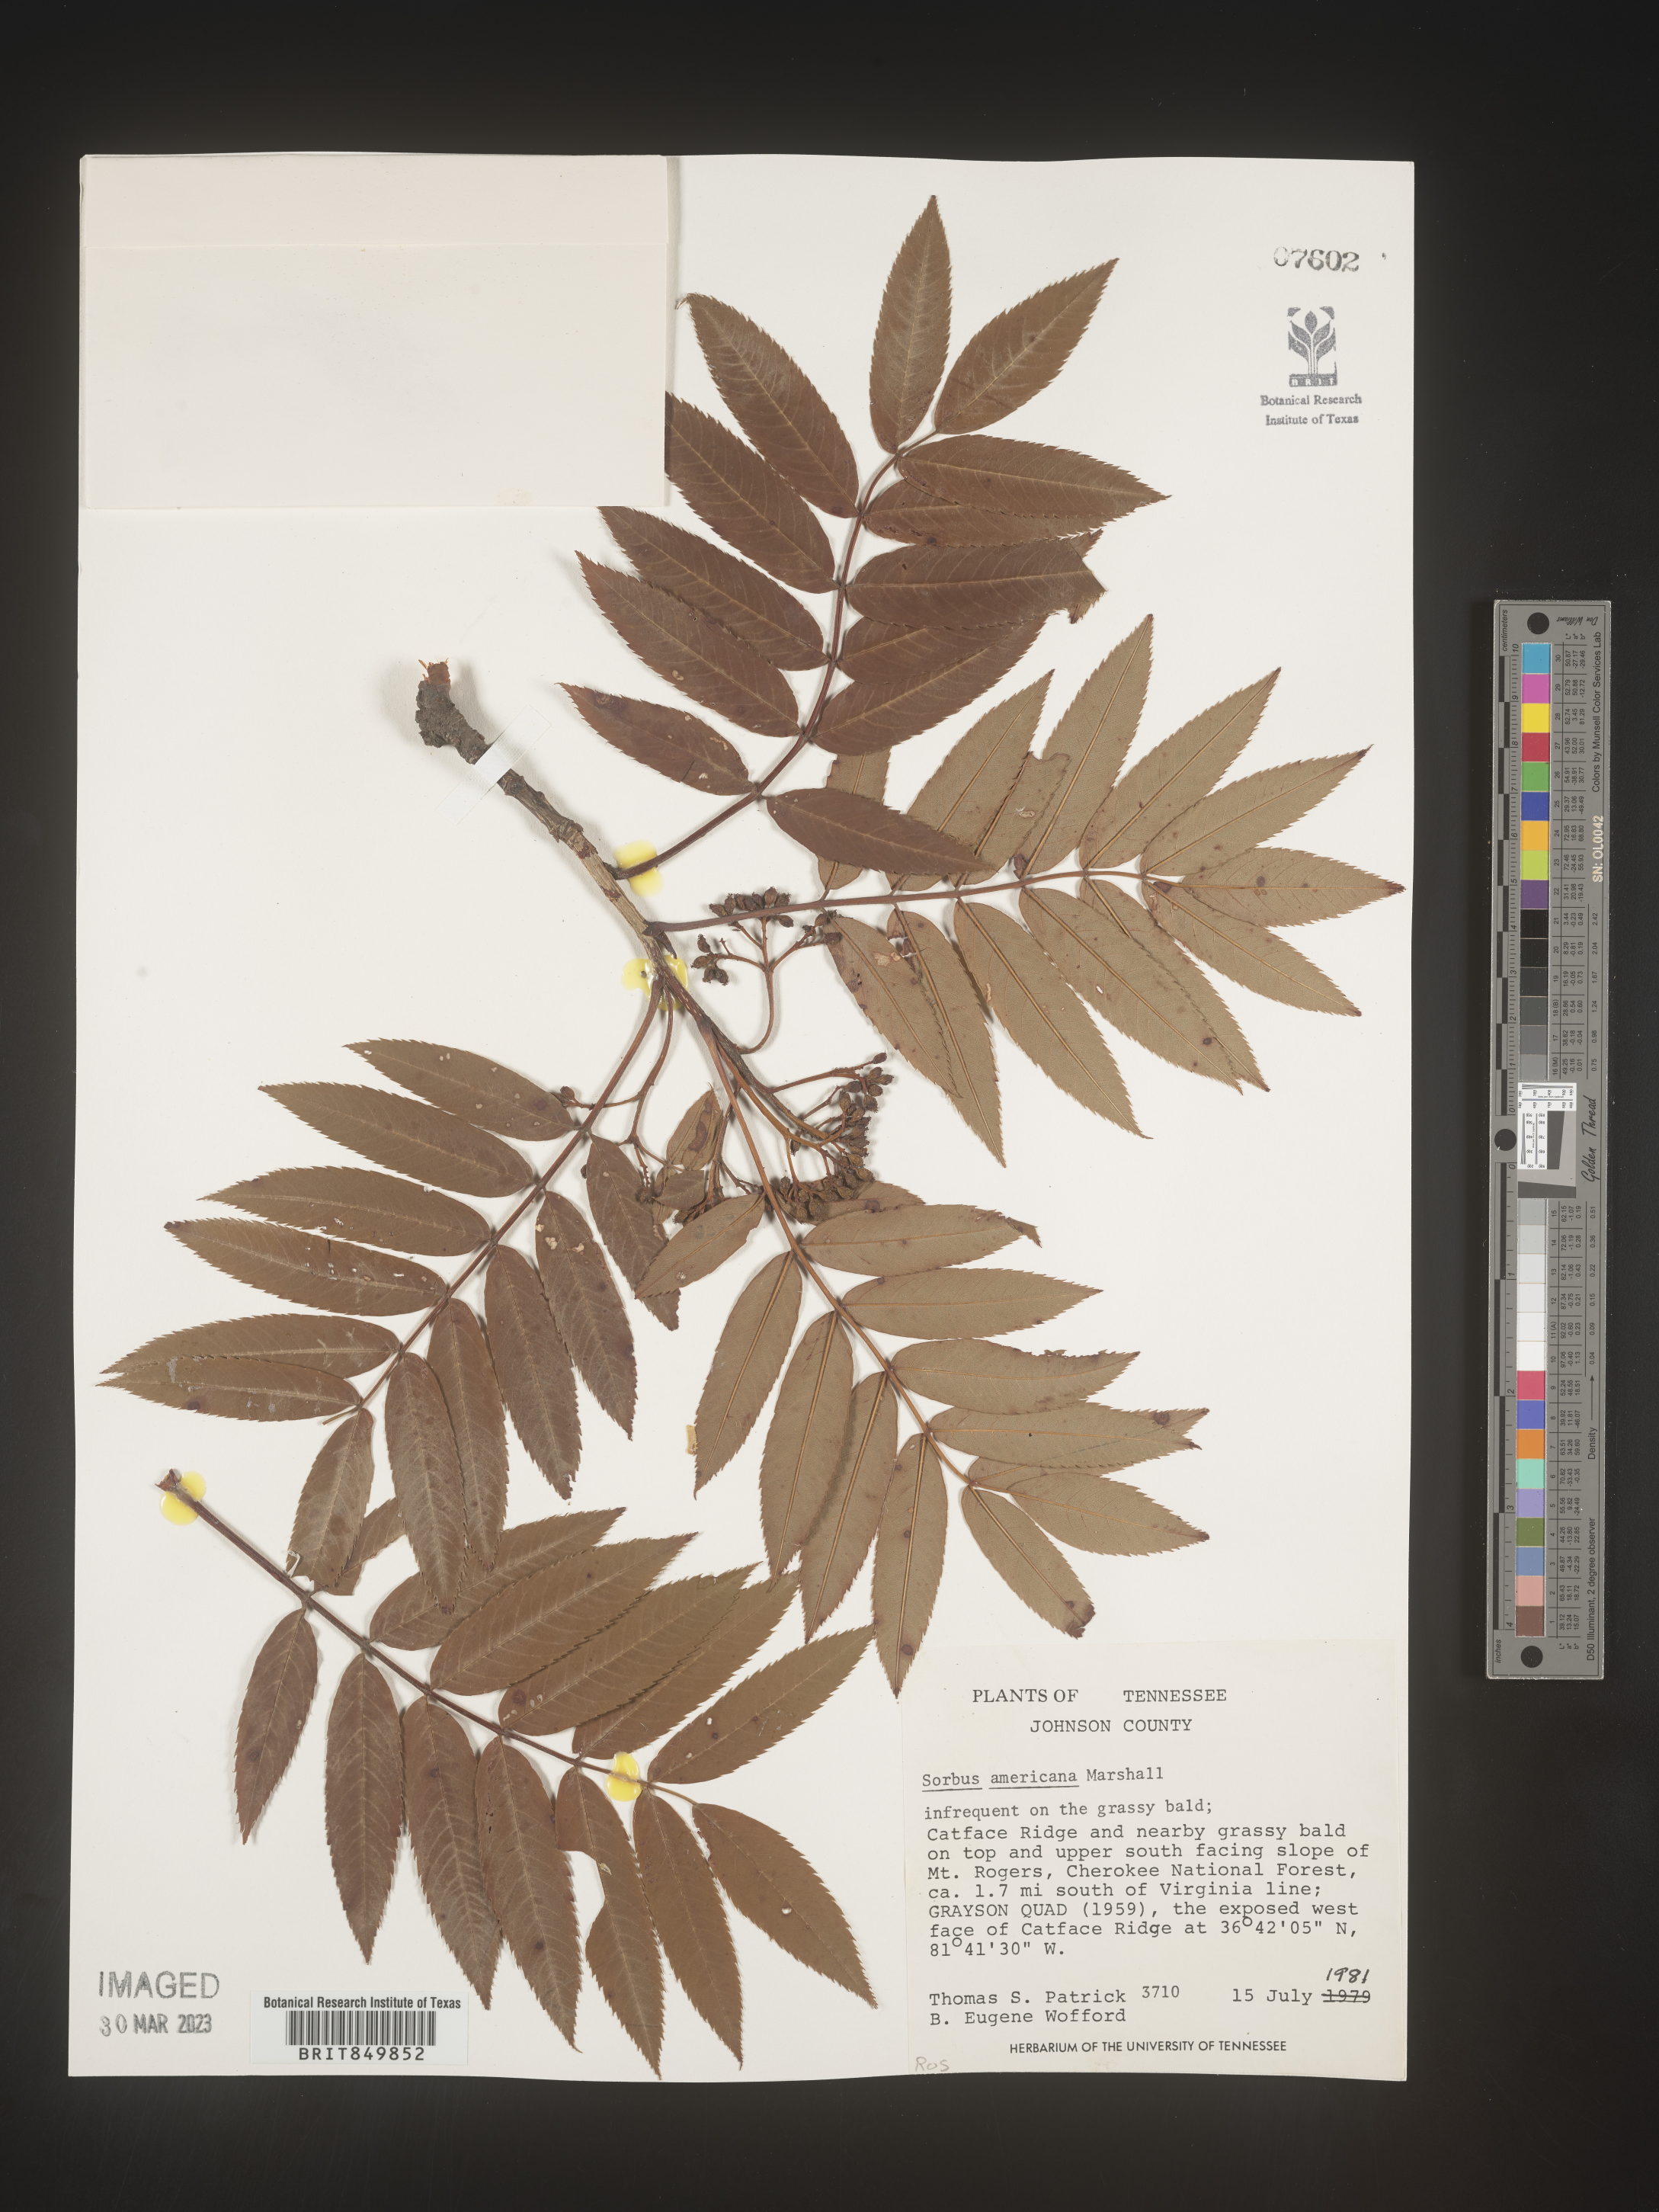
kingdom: Plantae
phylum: Tracheophyta
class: Magnoliopsida
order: Rosales
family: Rosaceae
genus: Sorbus
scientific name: Sorbus
